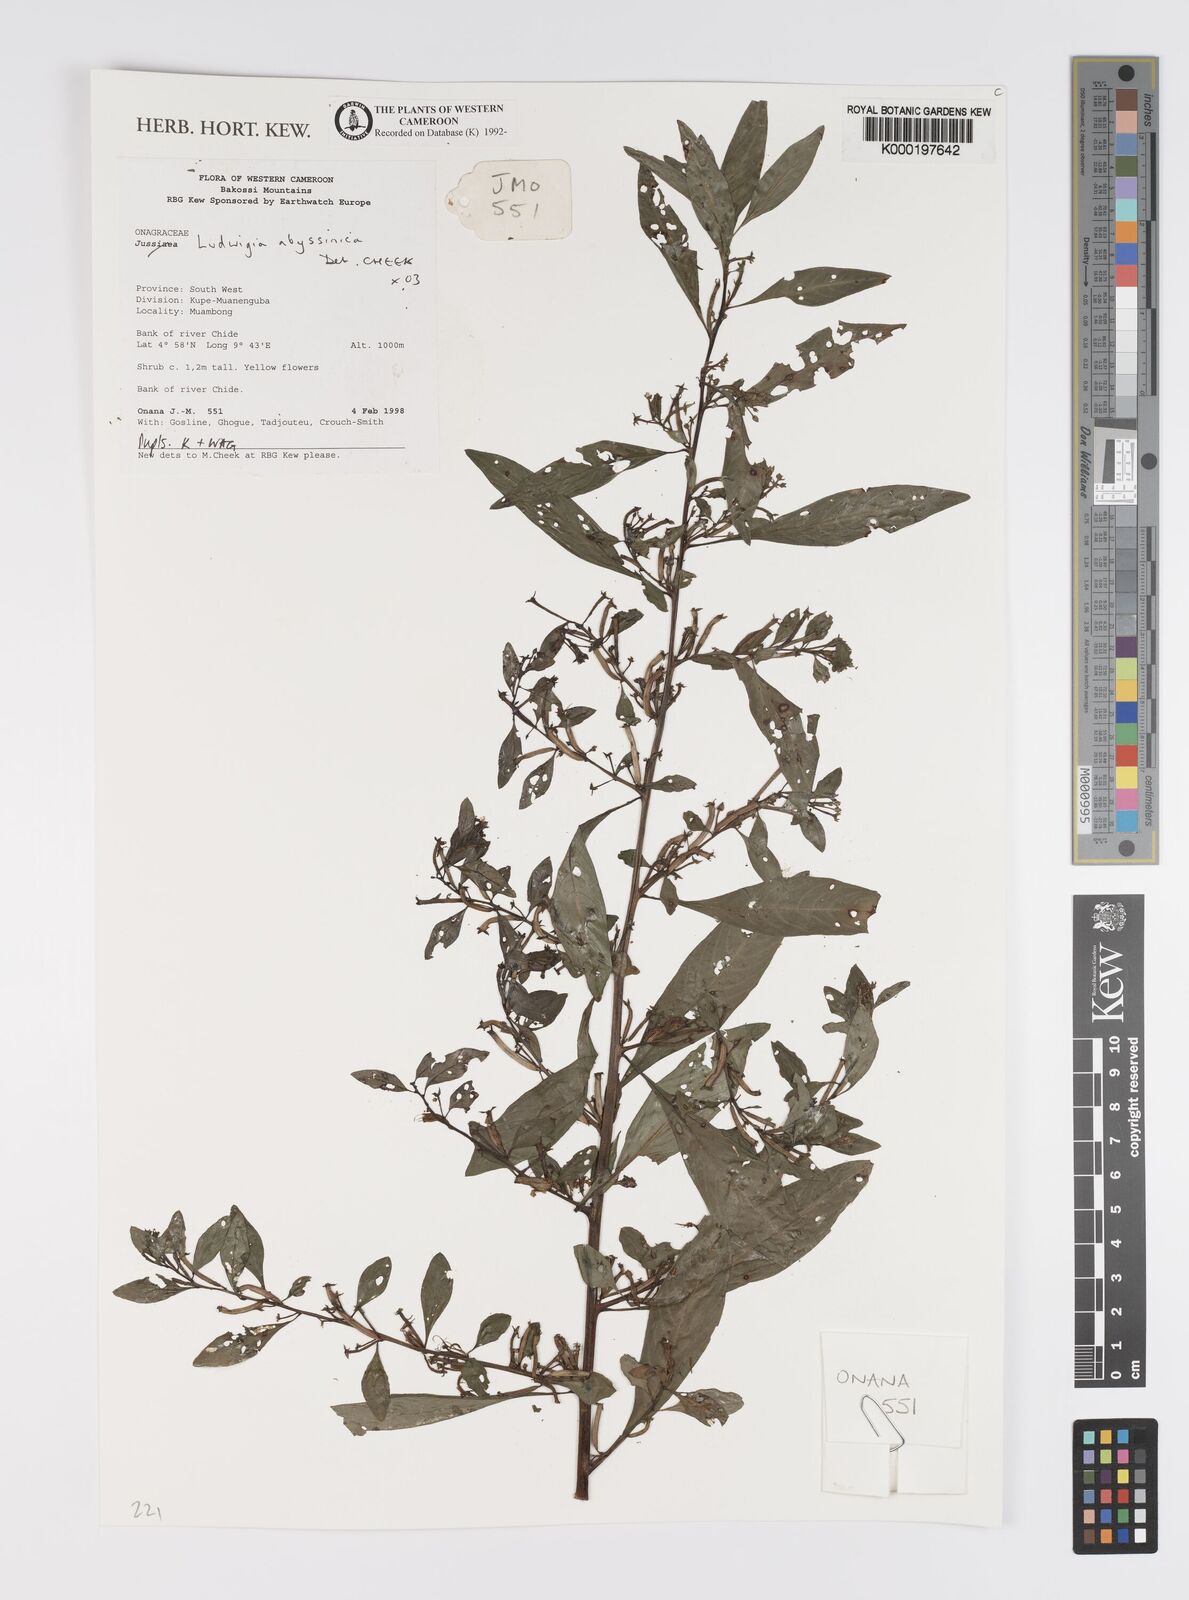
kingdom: Plantae
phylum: Tracheophyta
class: Magnoliopsida
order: Myrtales
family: Onagraceae
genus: Ludwigia
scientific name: Ludwigia abyssinica
